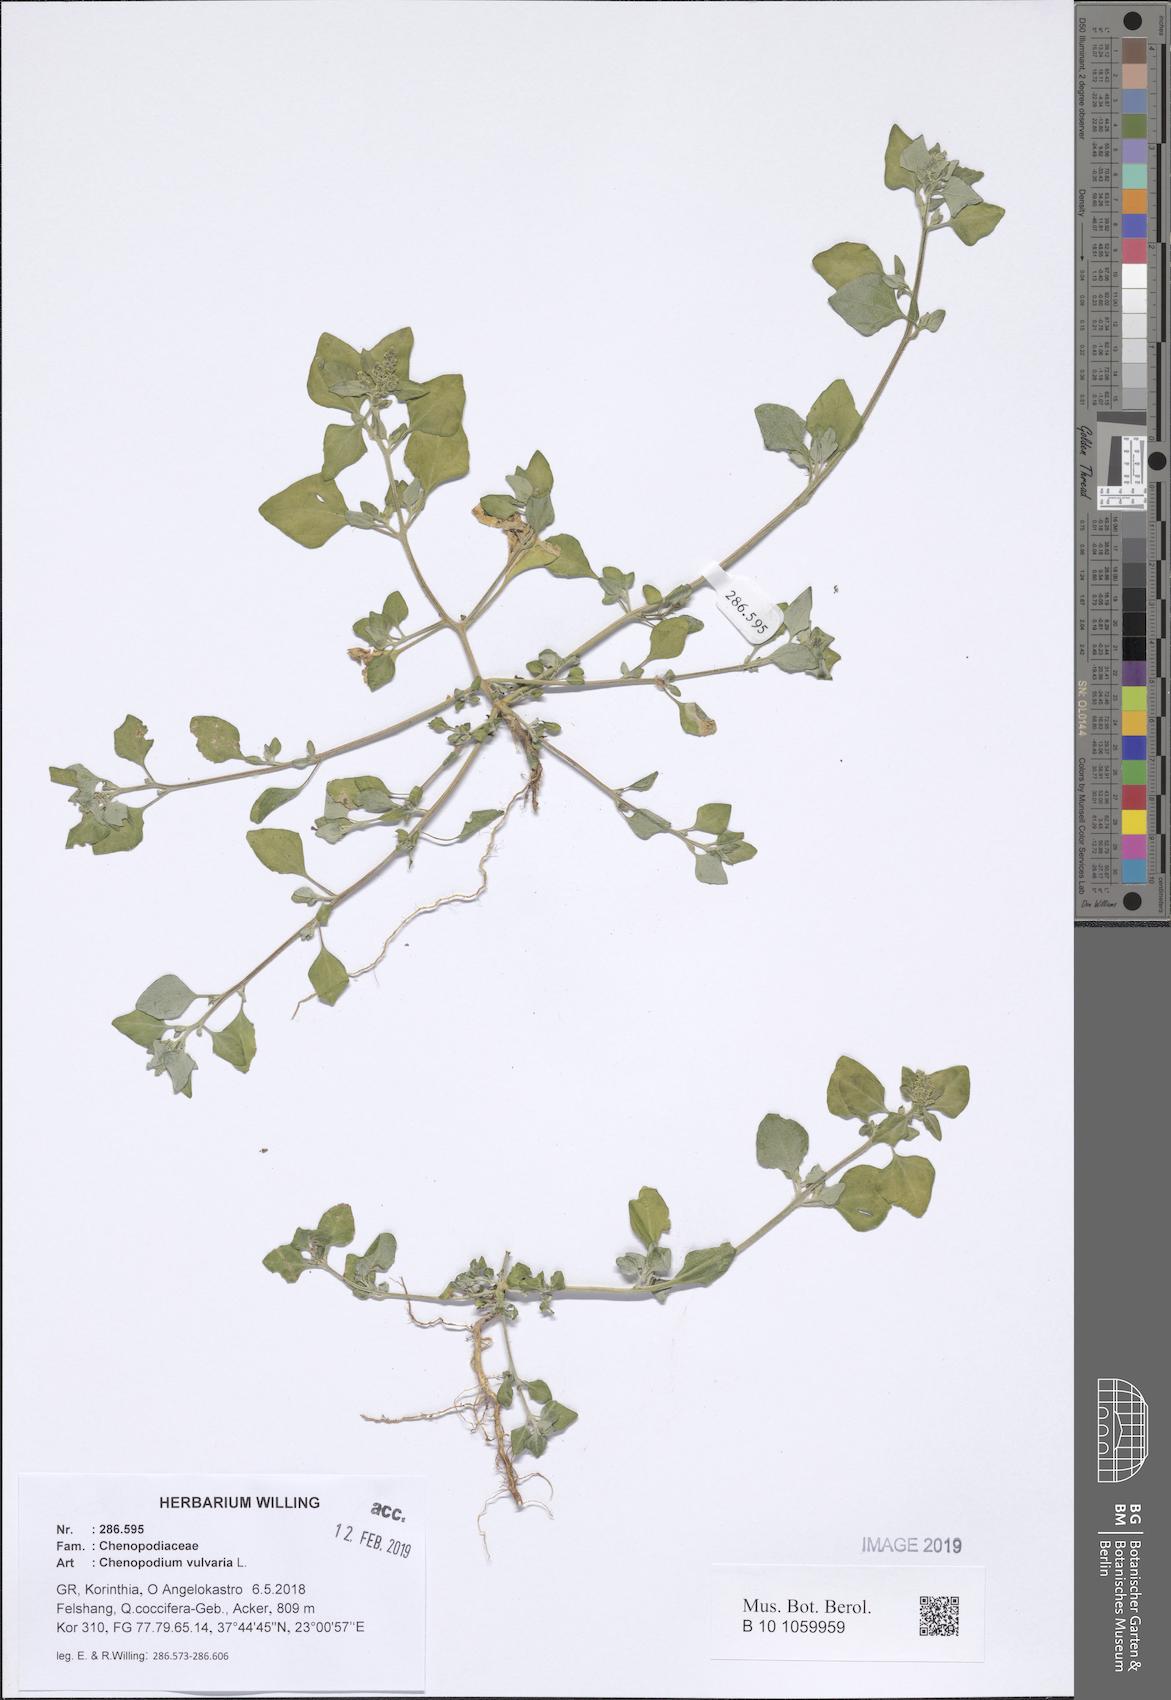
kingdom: Plantae
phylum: Tracheophyta
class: Magnoliopsida
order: Caryophyllales
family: Amaranthaceae
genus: Chenopodium
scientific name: Chenopodium vulvaria
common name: Stinking goosefoot
